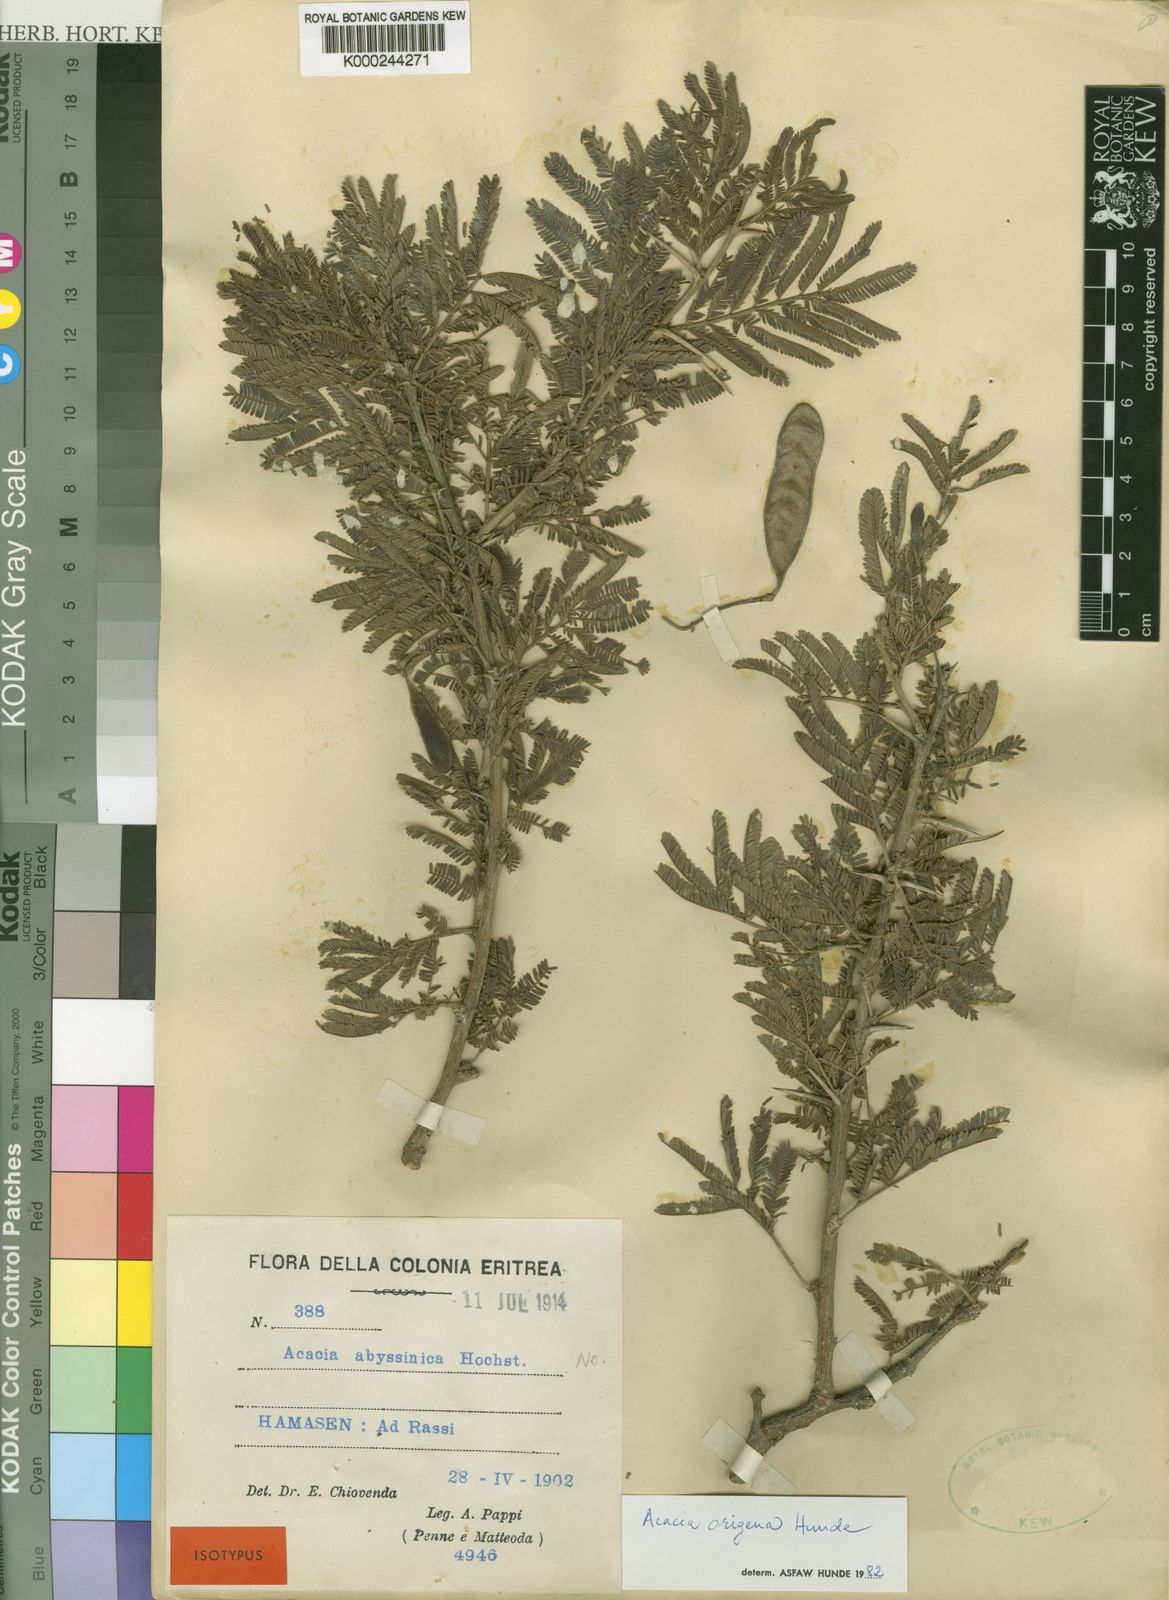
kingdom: Plantae
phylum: Tracheophyta
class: Magnoliopsida
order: Fabales
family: Fabaceae
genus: Acacia
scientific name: Acacia
